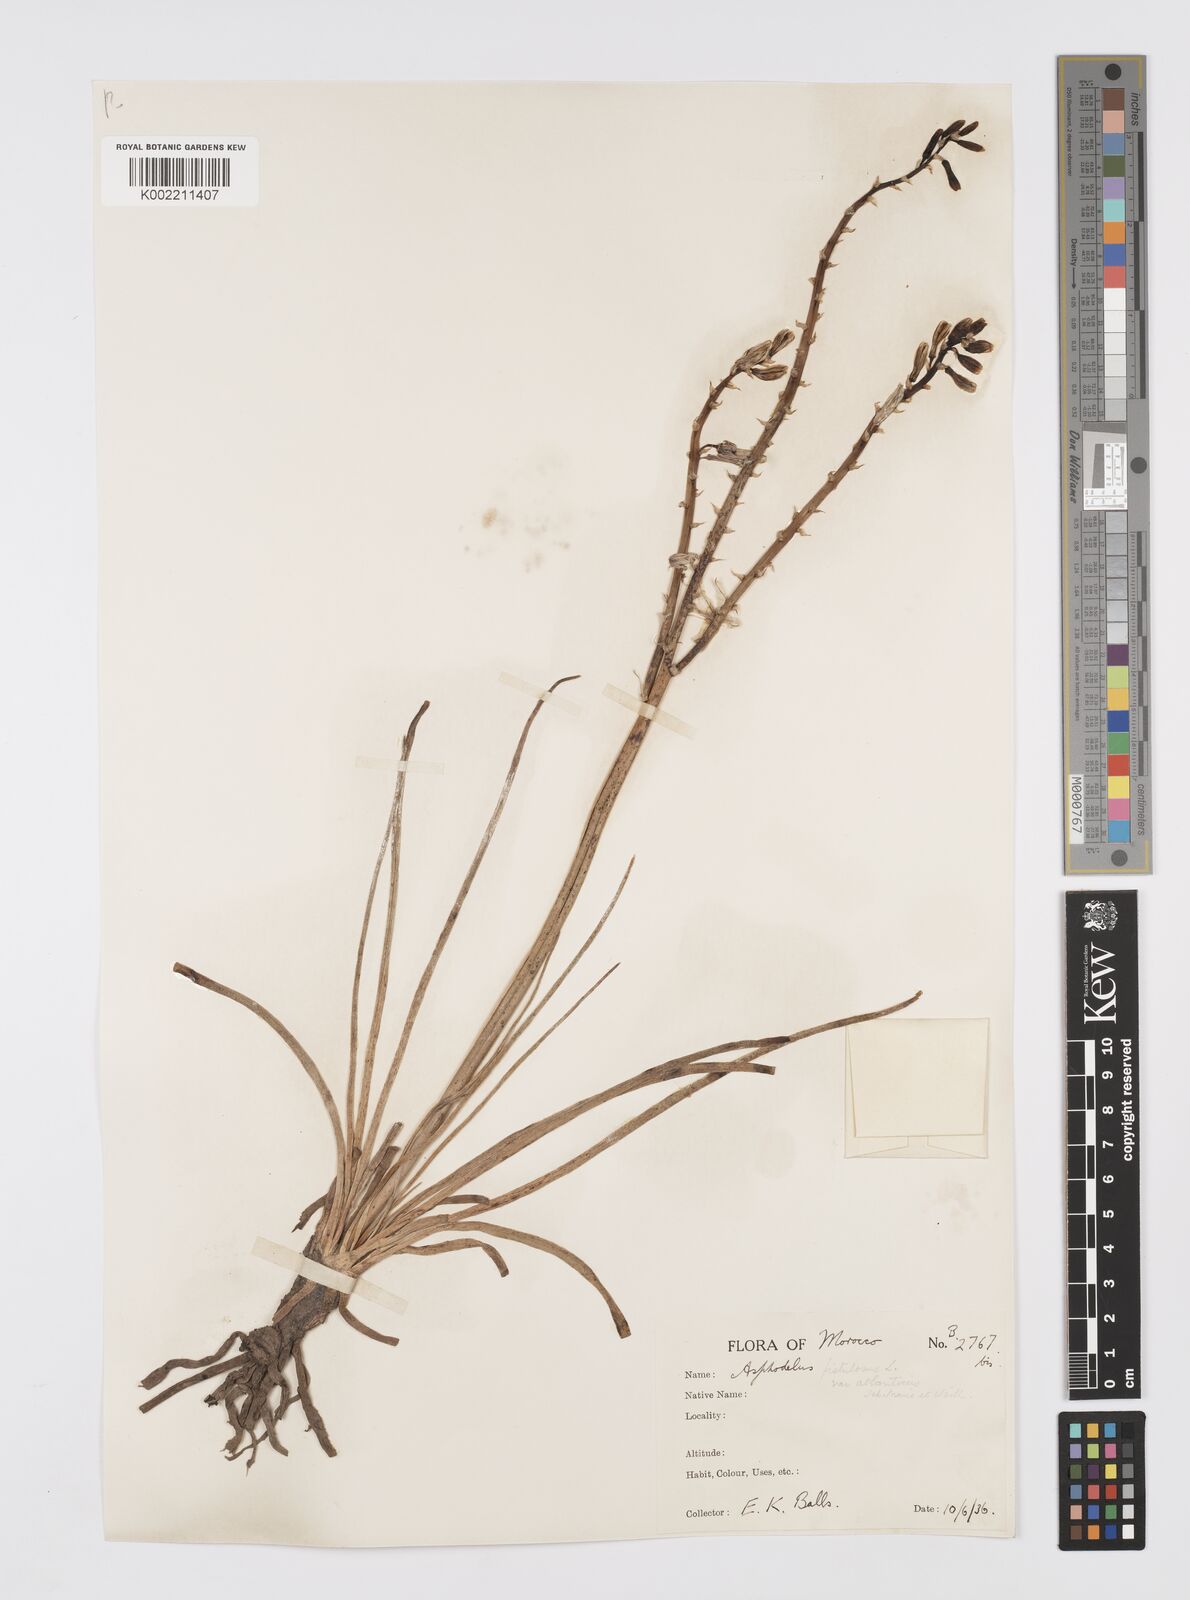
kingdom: Plantae
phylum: Tracheophyta
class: Liliopsida
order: Asparagales
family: Asphodelaceae
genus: Asphodelus
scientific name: Asphodelus fistulosus
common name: Onionweed
